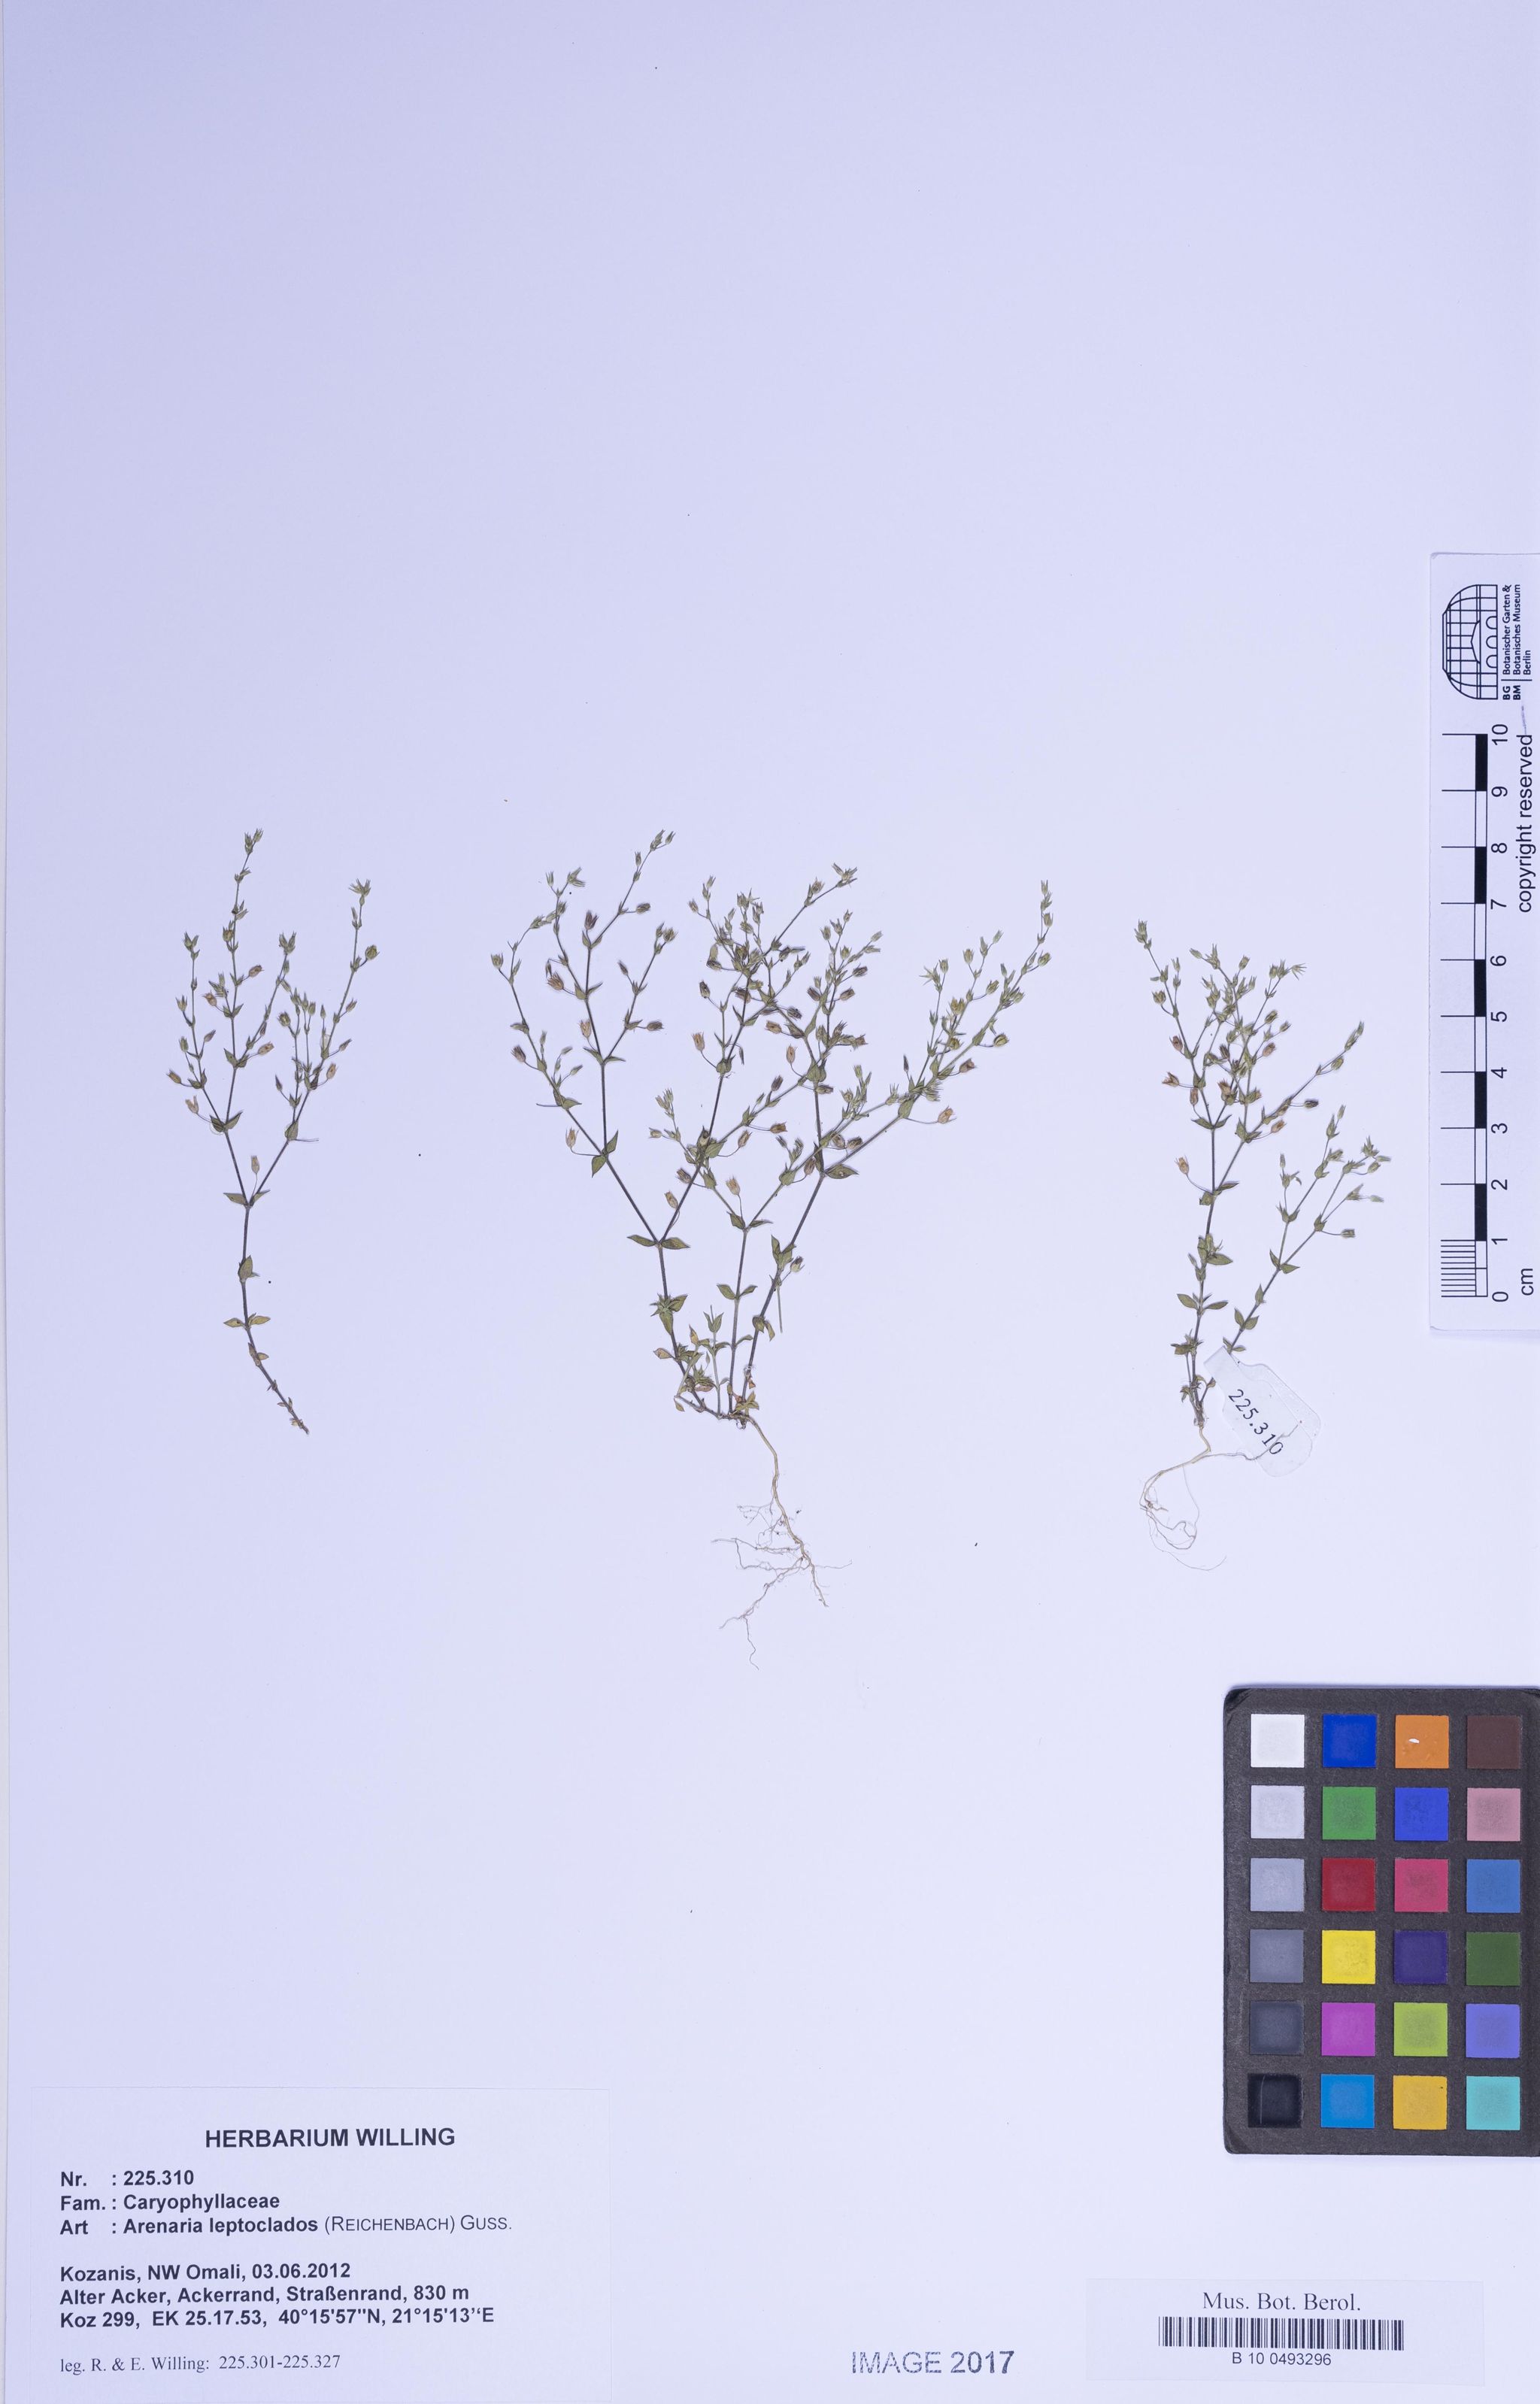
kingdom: Plantae
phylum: Tracheophyta
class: Magnoliopsida
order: Caryophyllales
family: Caryophyllaceae
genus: Arenaria
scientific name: Arenaria leptoclados
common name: Thyme-leaved sandwort
